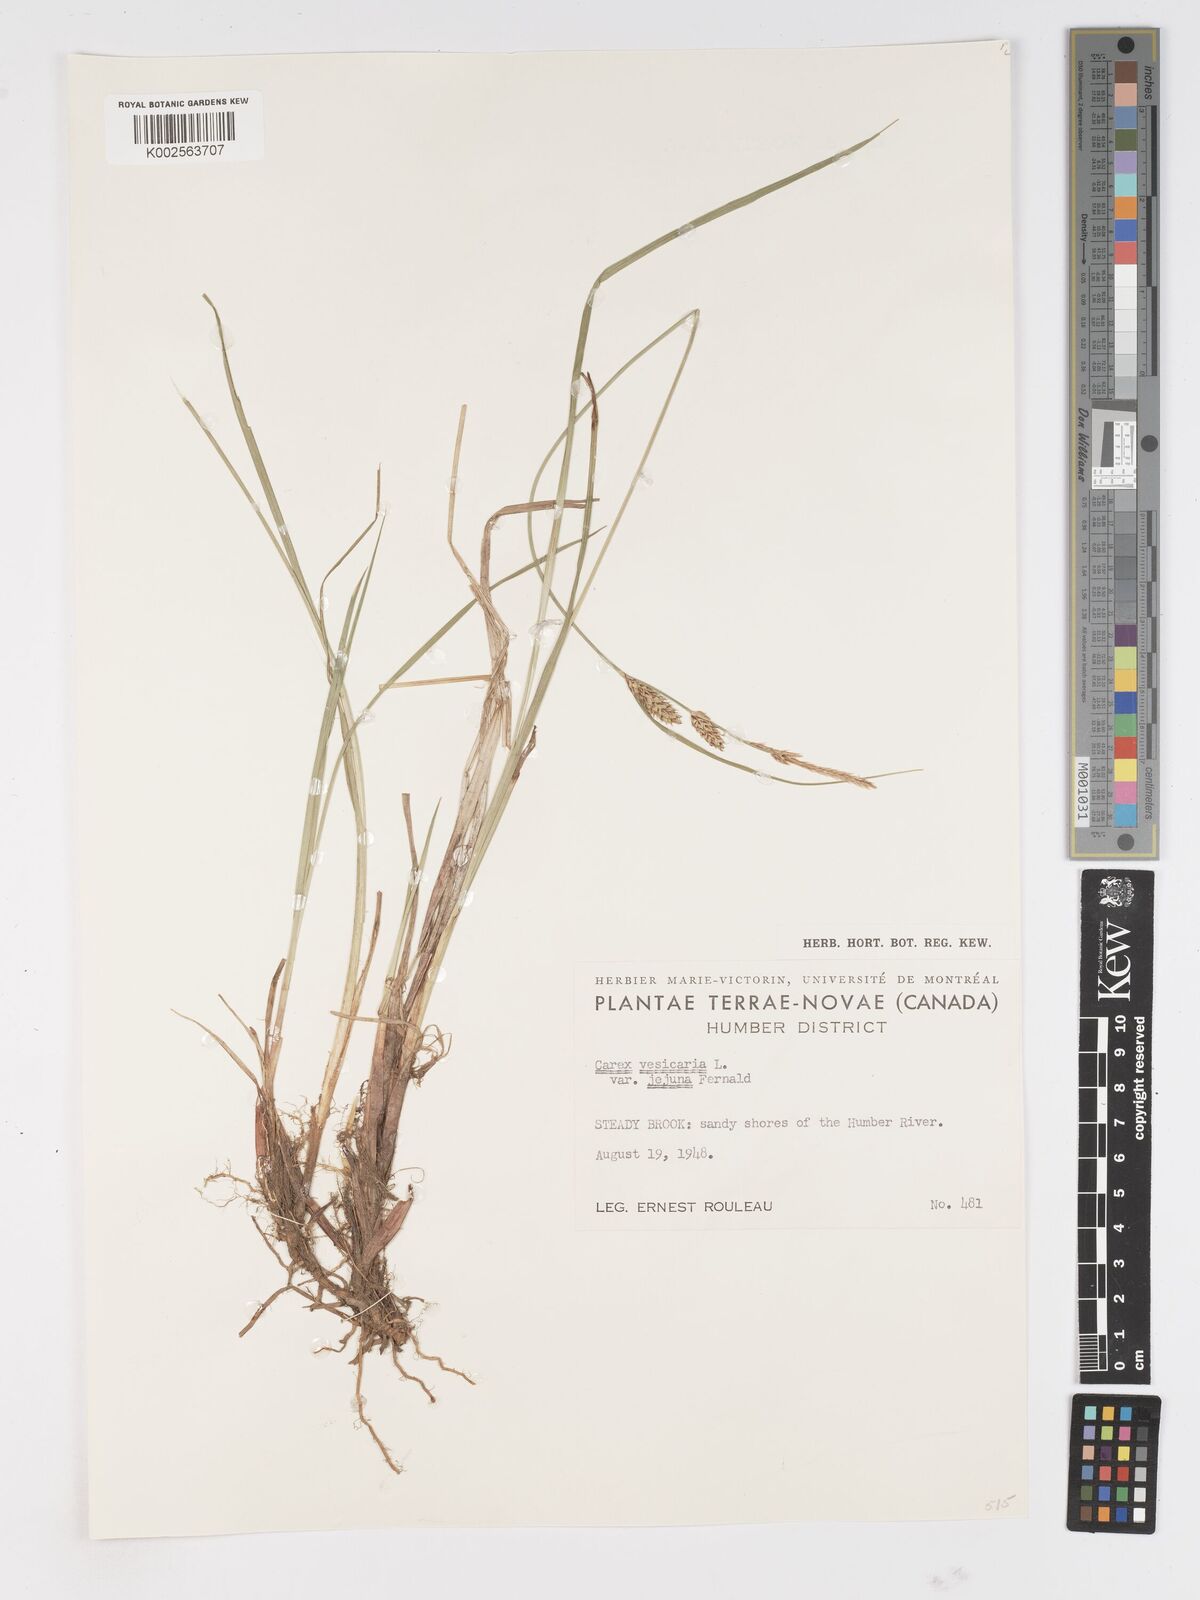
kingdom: Plantae
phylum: Tracheophyta
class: Liliopsida
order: Poales
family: Cyperaceae
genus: Carex
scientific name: Carex vesicaria
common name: Bladder-sedge
